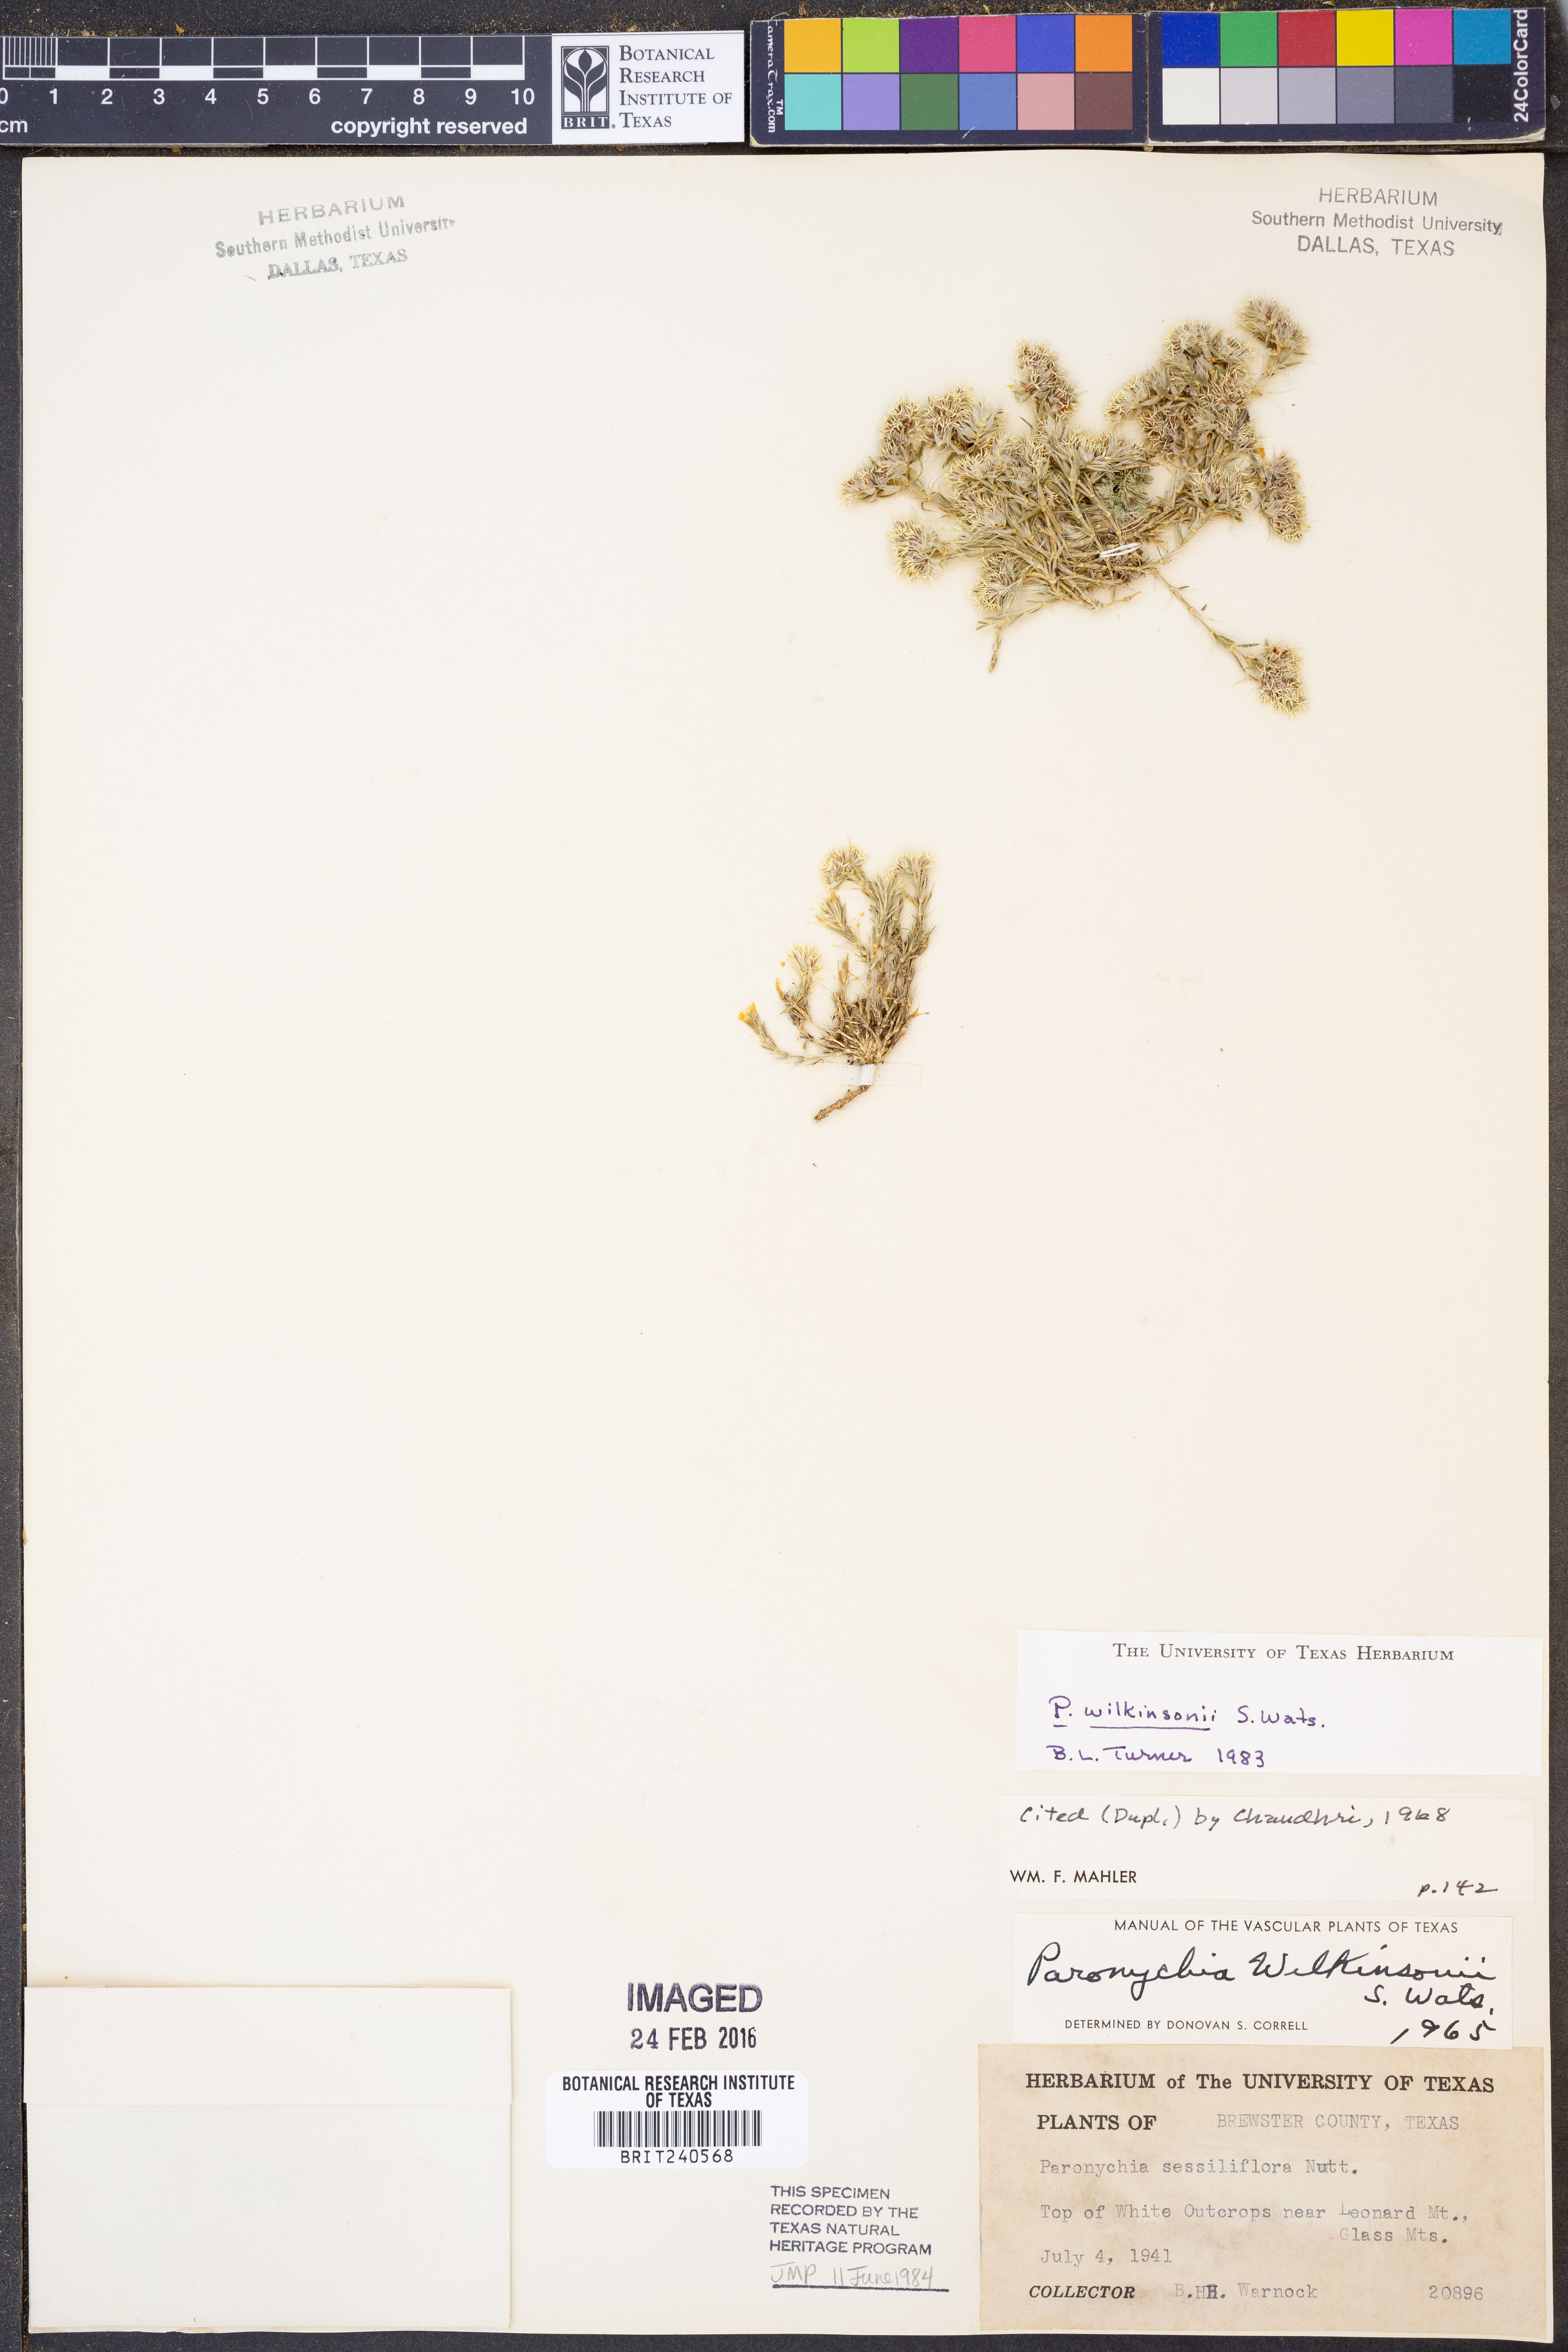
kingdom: Plantae
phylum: Tracheophyta
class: Magnoliopsida
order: Caryophyllales
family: Caryophyllaceae
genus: Paronychia
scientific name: Paronychia wilkinsonii
